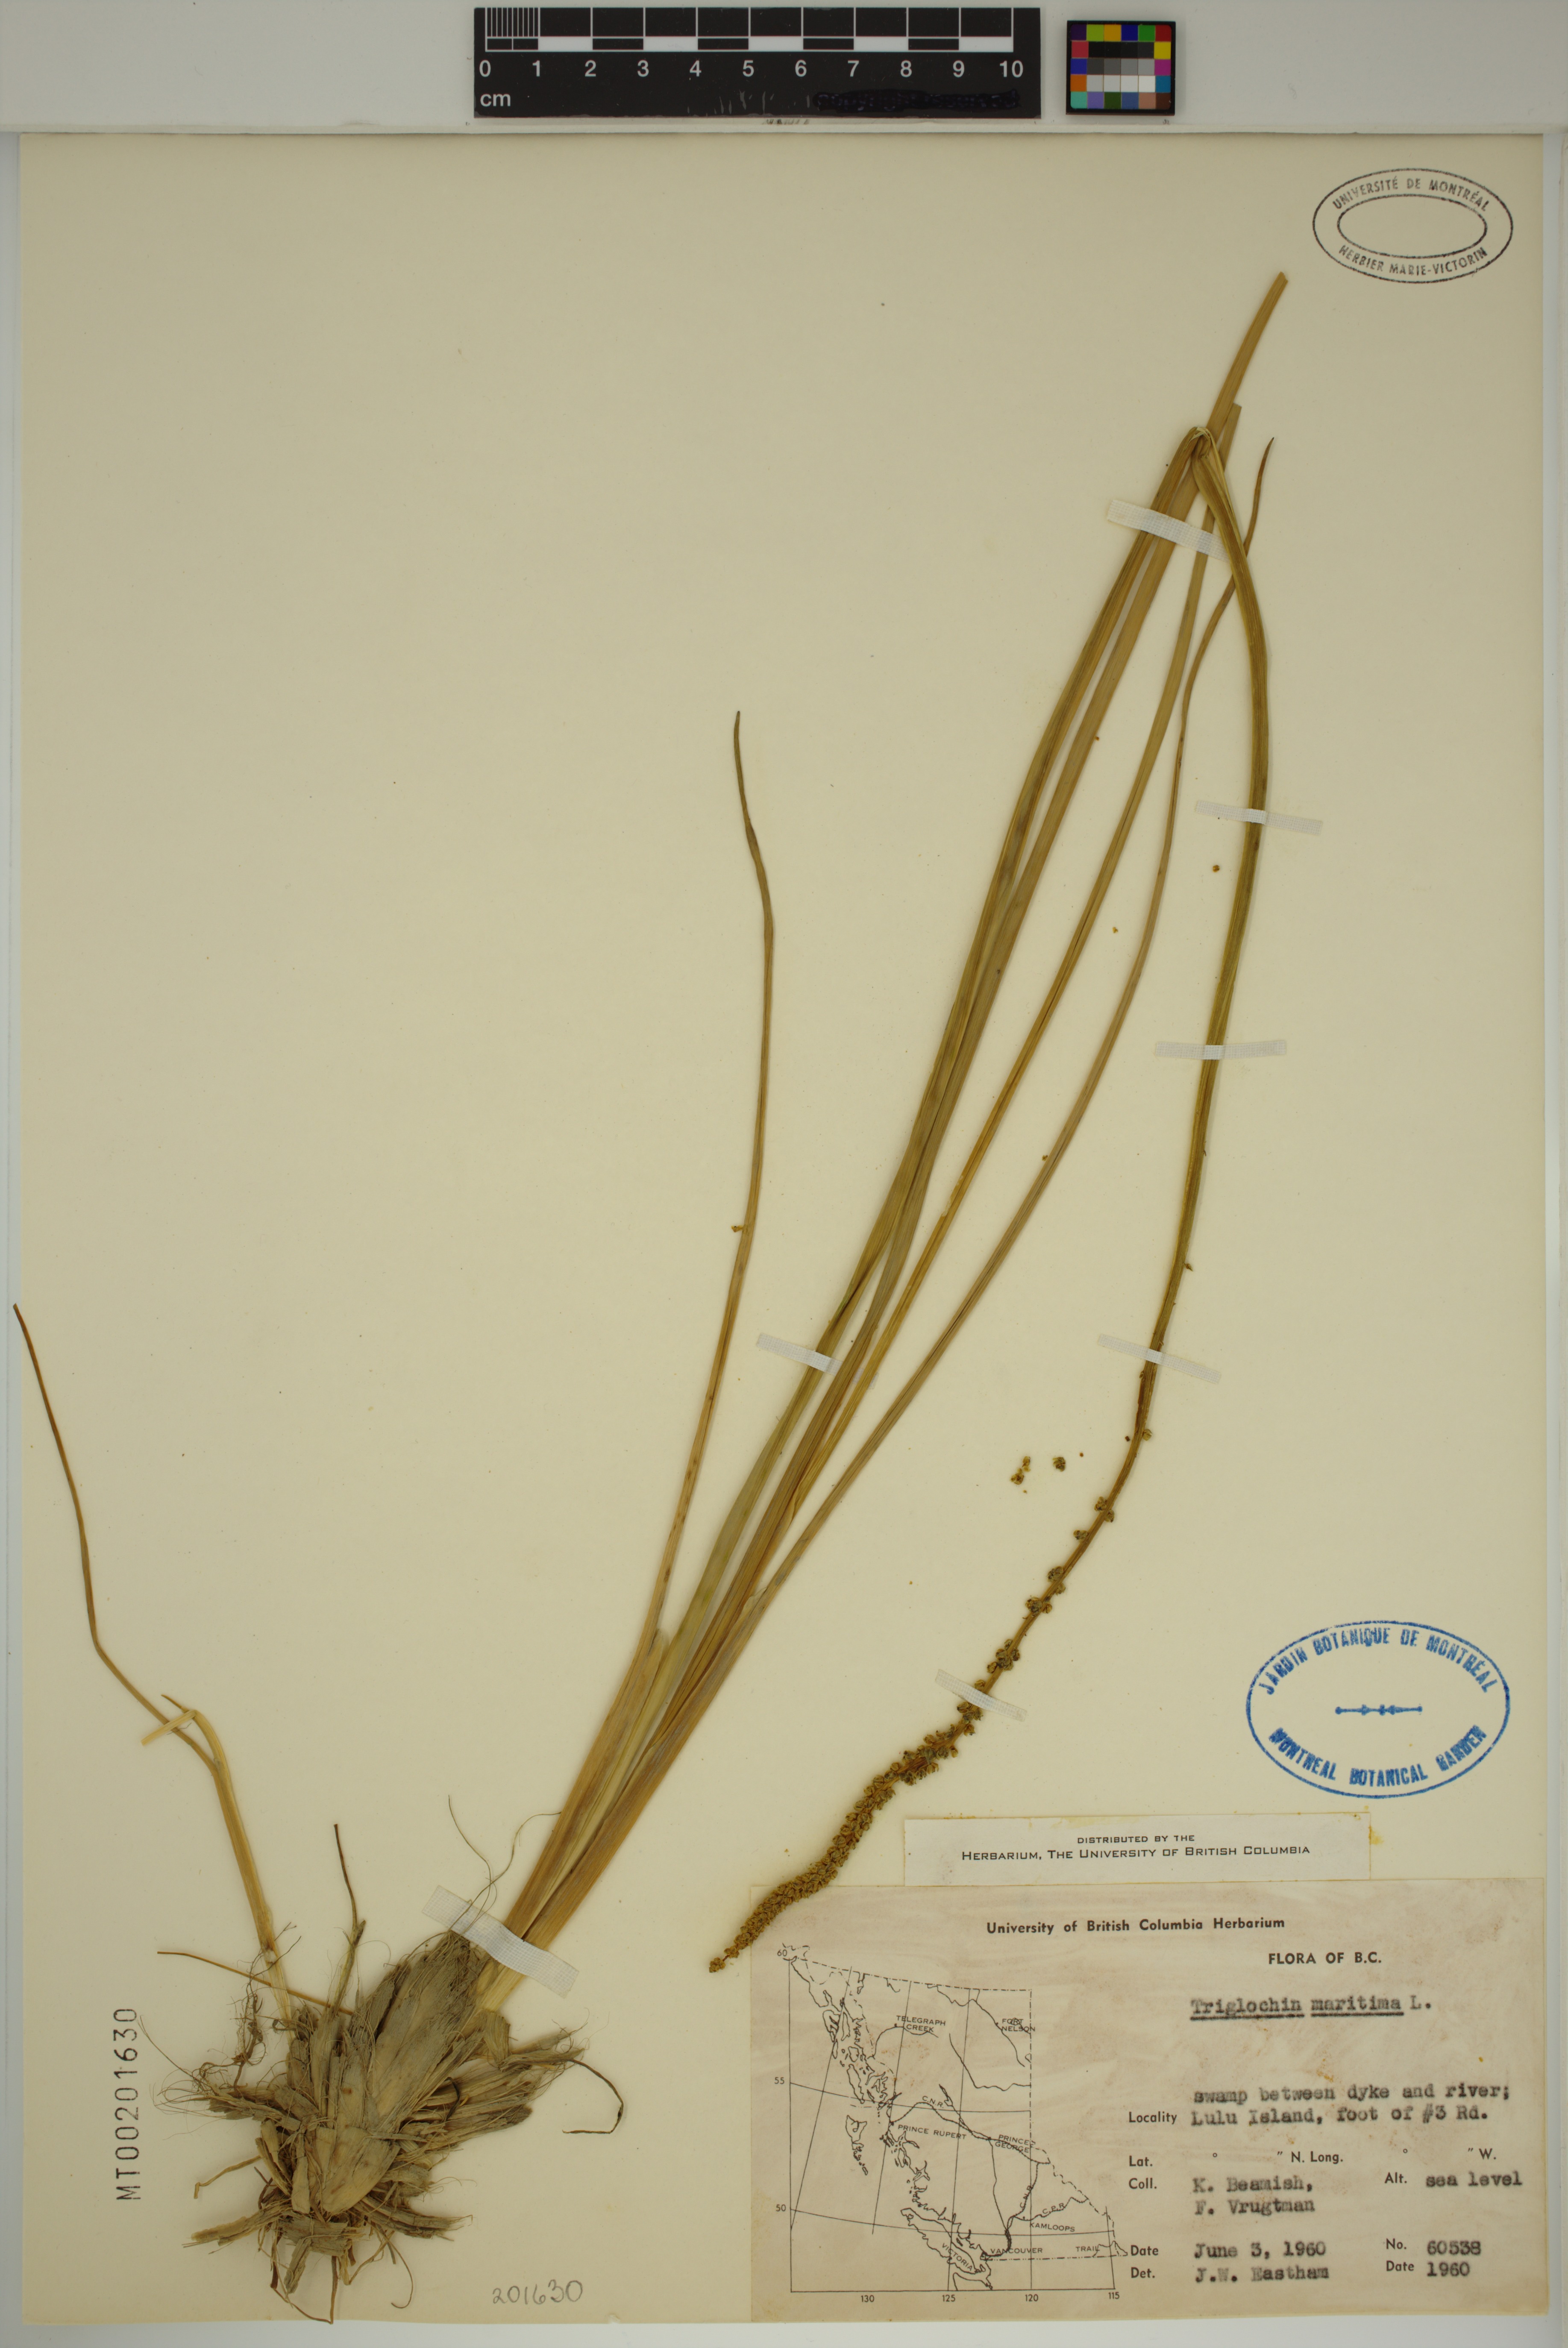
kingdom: Plantae
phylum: Tracheophyta
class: Liliopsida
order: Alismatales
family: Juncaginaceae
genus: Triglochin
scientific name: Triglochin maritima
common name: Sea arrowgrass
